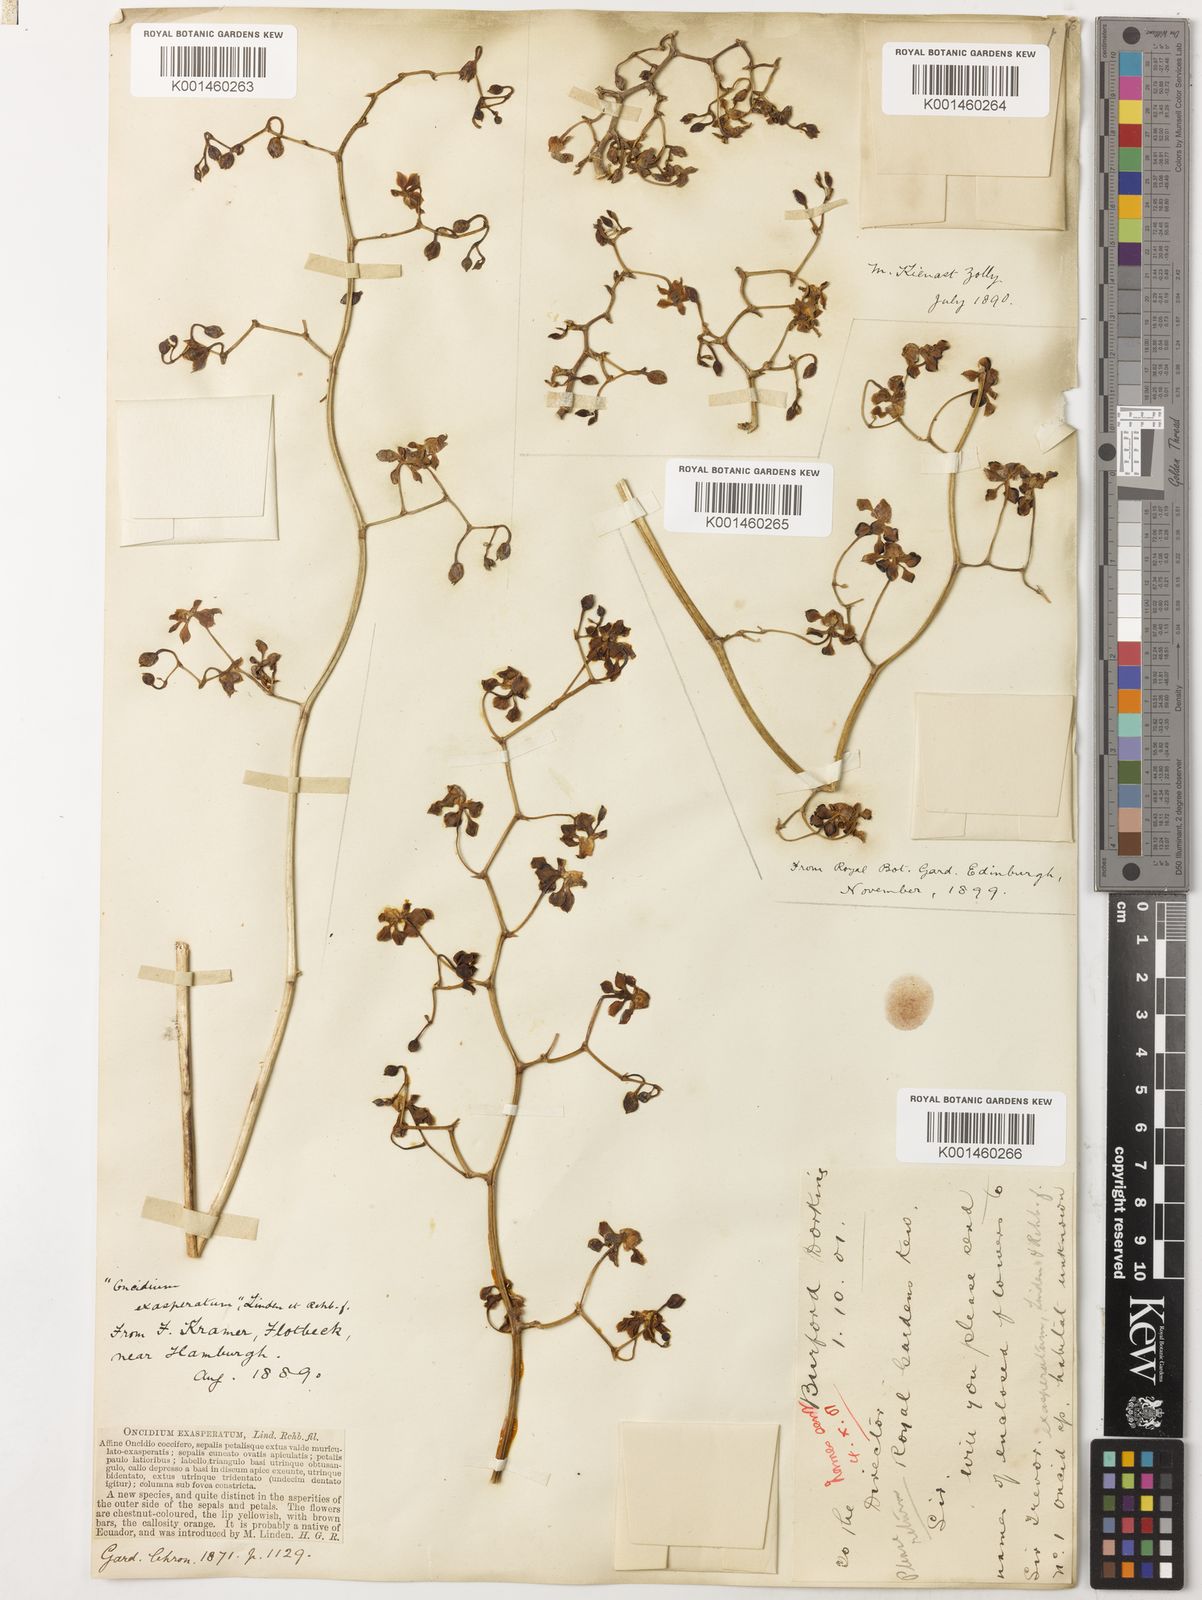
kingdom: Plantae
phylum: Tracheophyta
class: Liliopsida
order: Asparagales
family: Orchidaceae
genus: Cyrtochilum
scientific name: Cyrtochilum exasperatum
